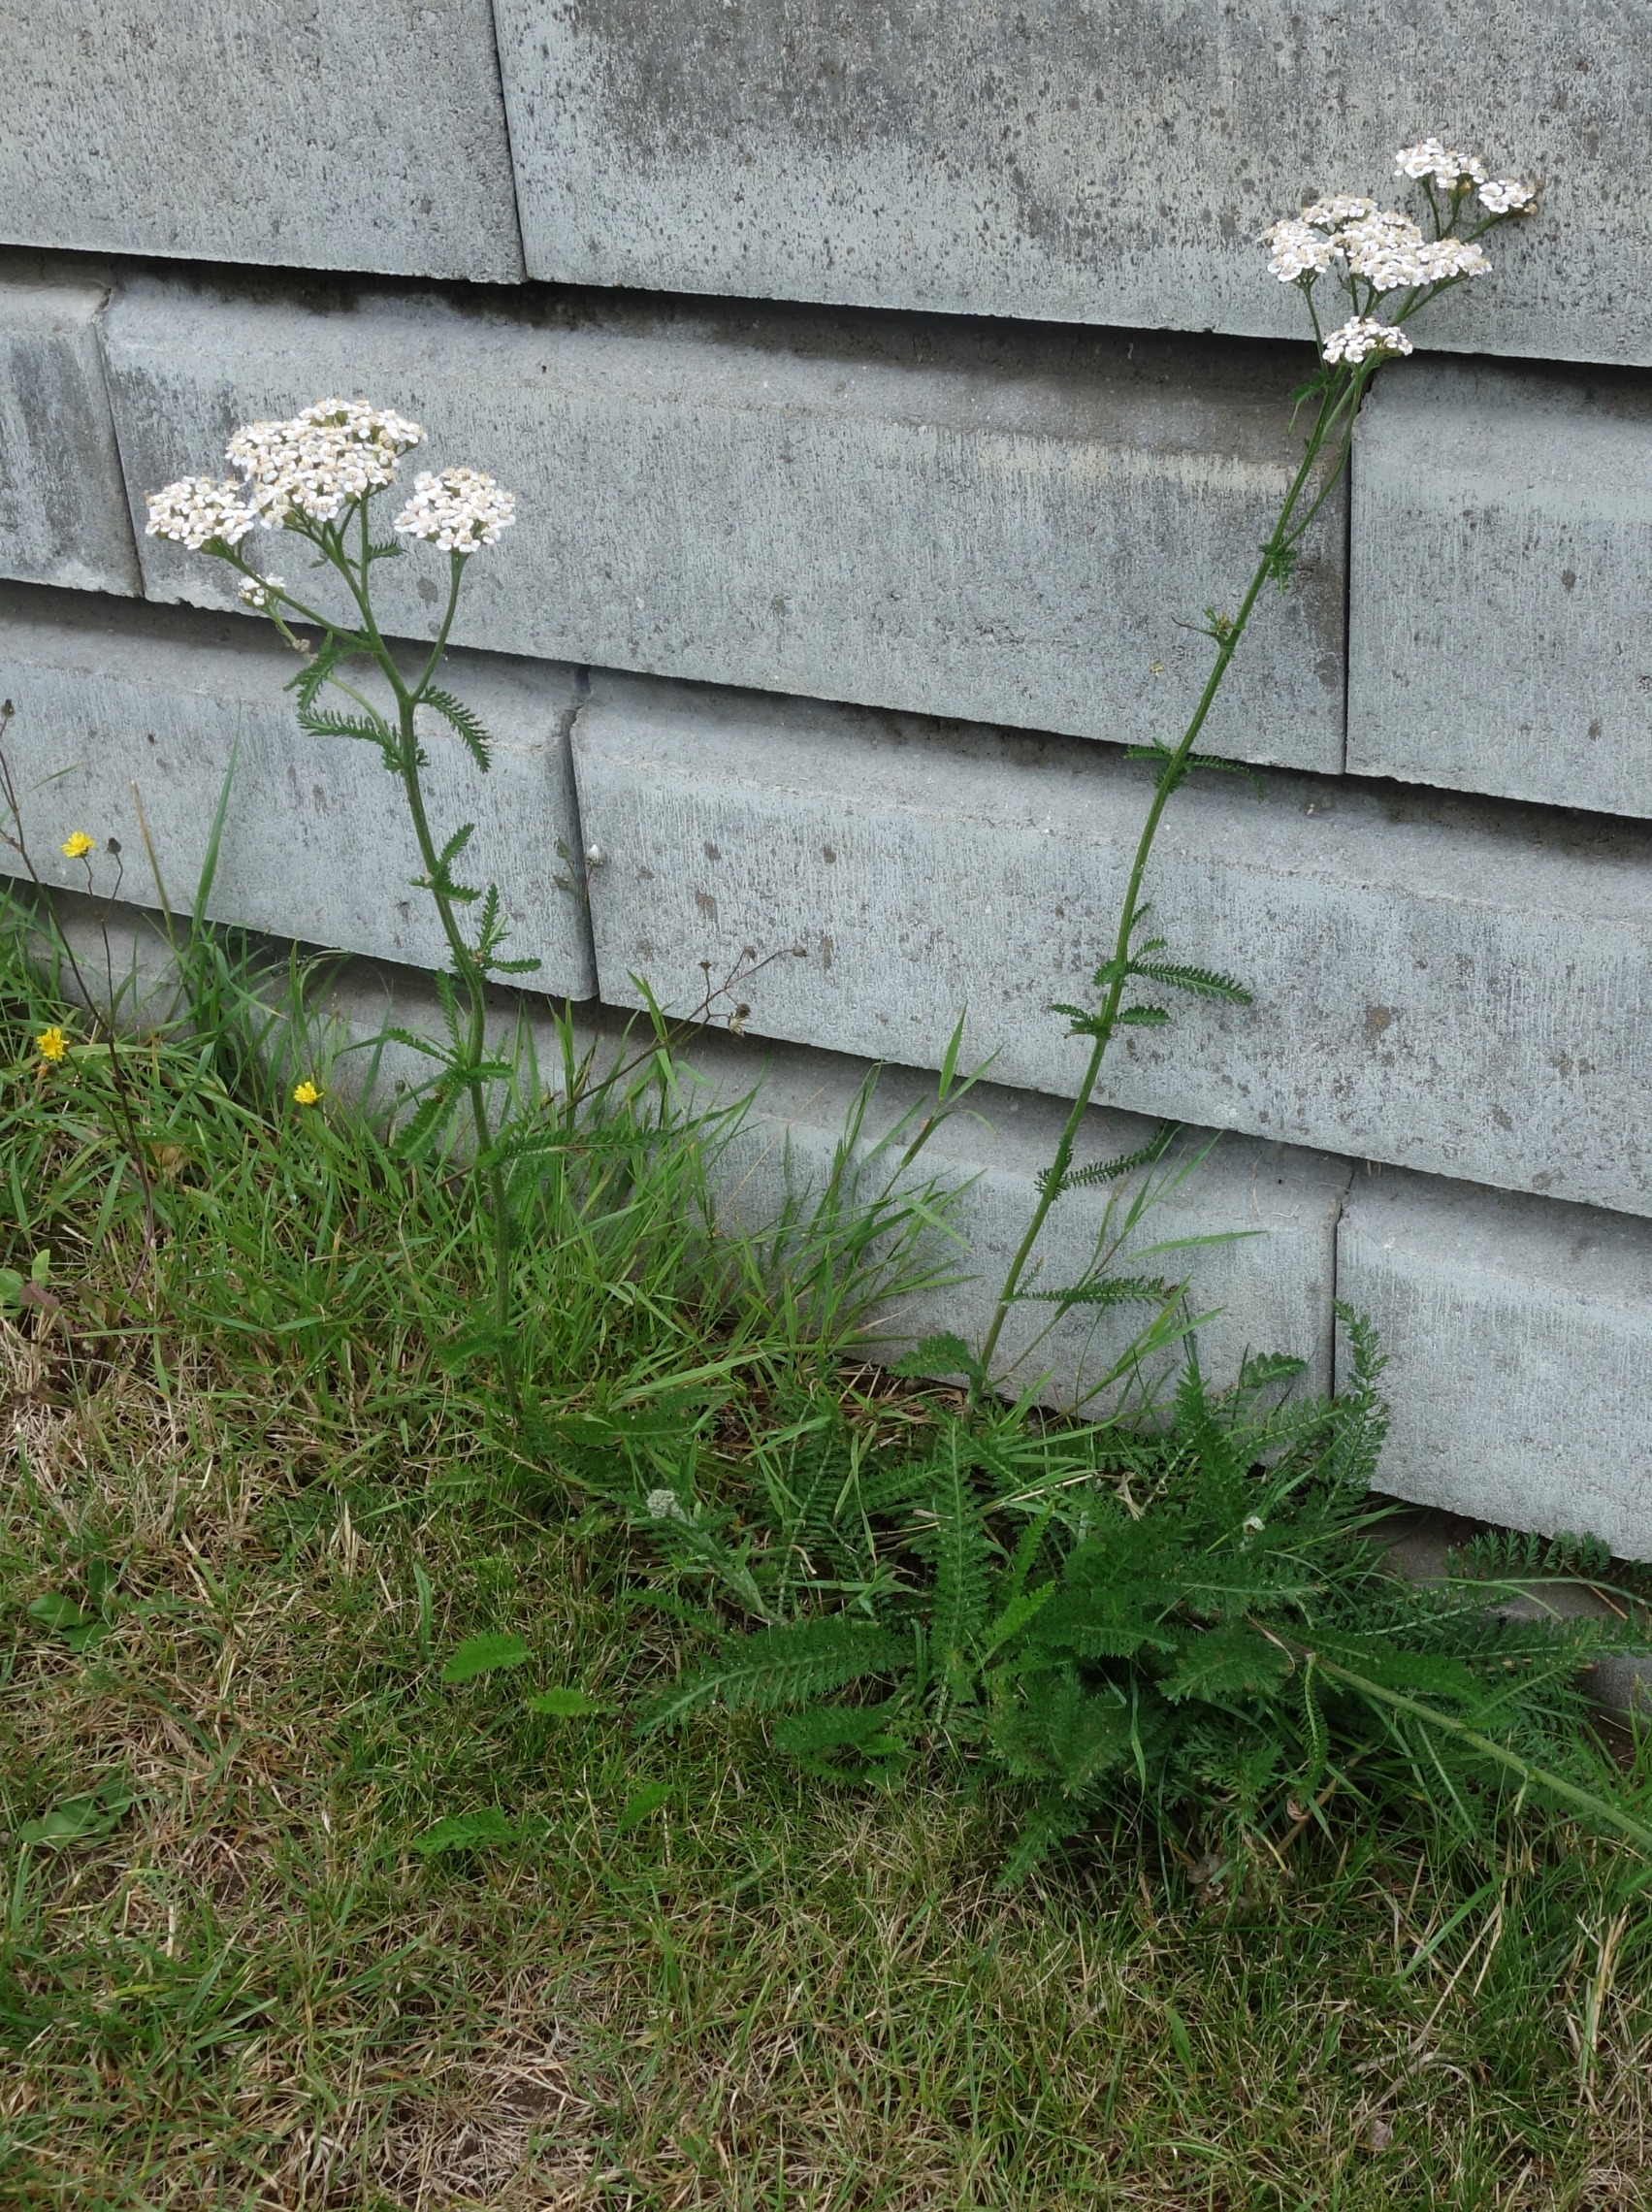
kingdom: Plantae
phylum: Tracheophyta
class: Magnoliopsida
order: Asterales
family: Asteraceae
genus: Achillea
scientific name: Achillea millefolium
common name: Almindelig røllike
